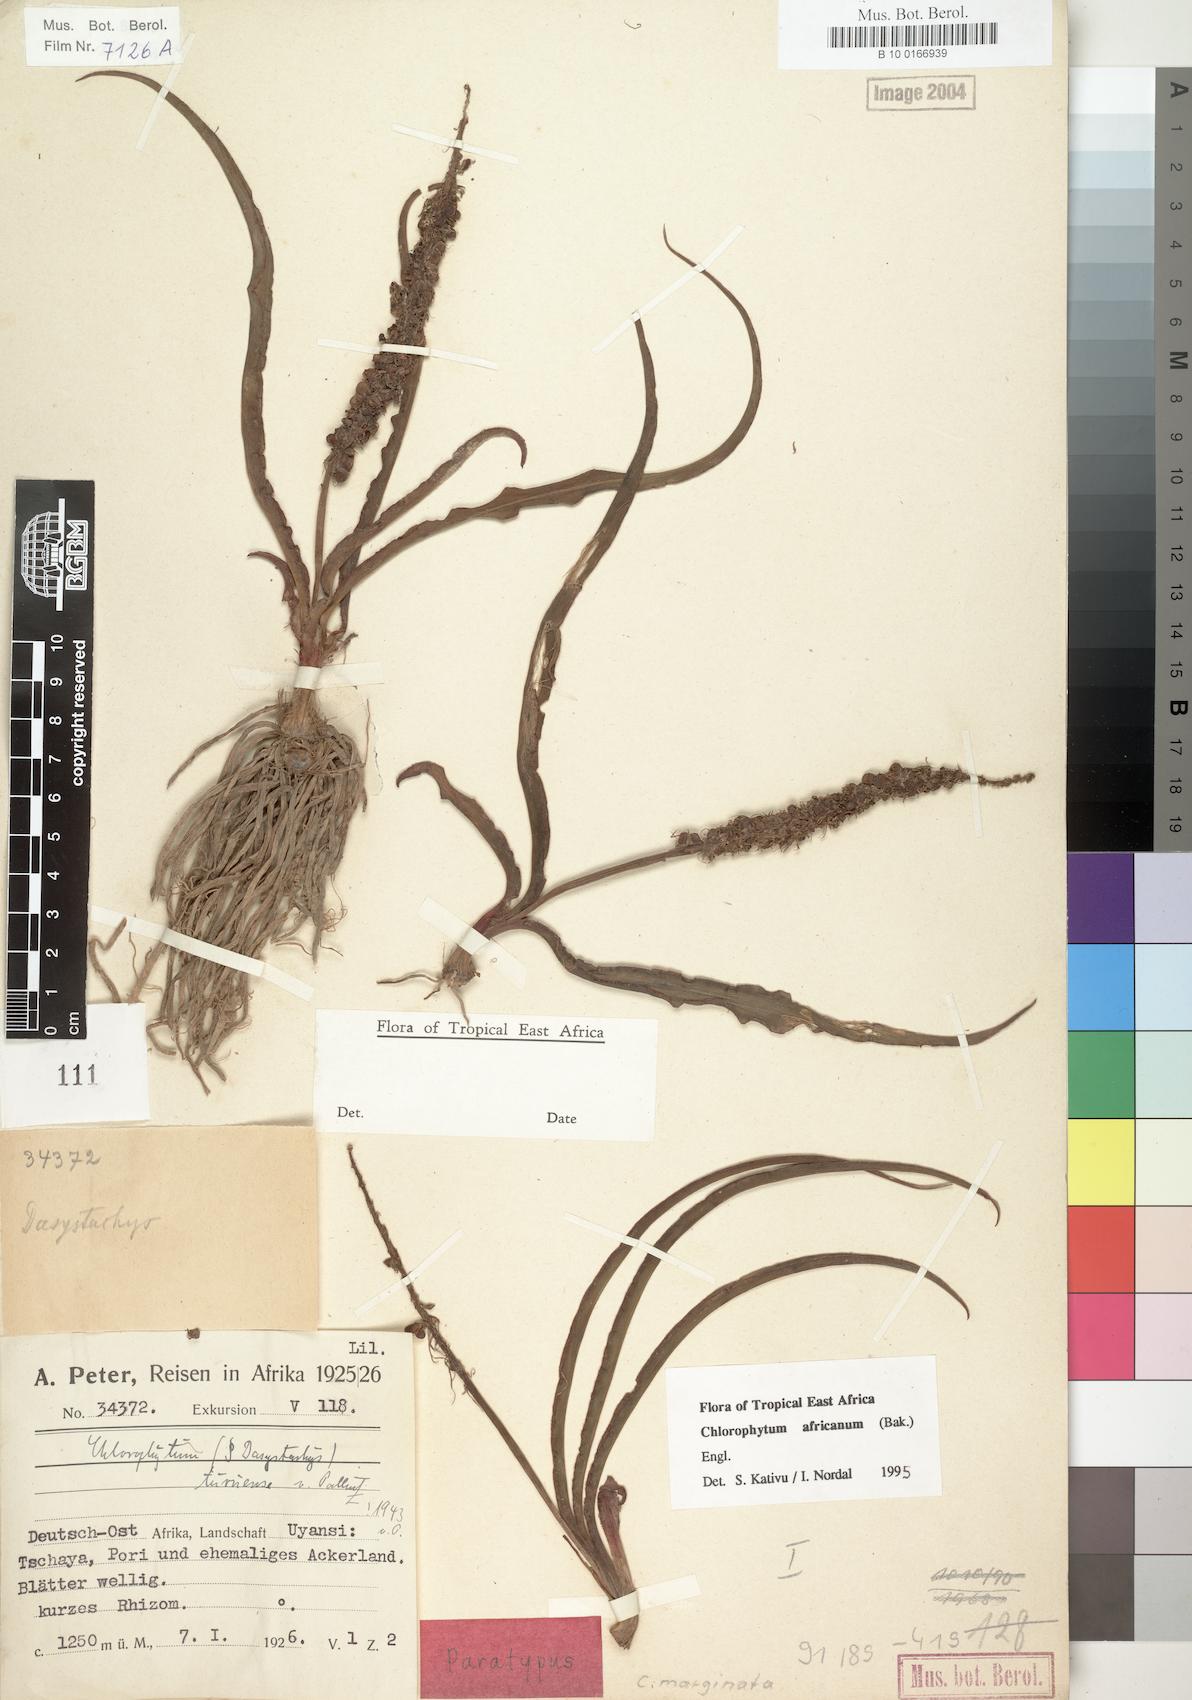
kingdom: Plantae
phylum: Tracheophyta
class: Liliopsida
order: Asparagales
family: Asparagaceae
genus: Chlorophytum
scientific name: Chlorophytum africanum
